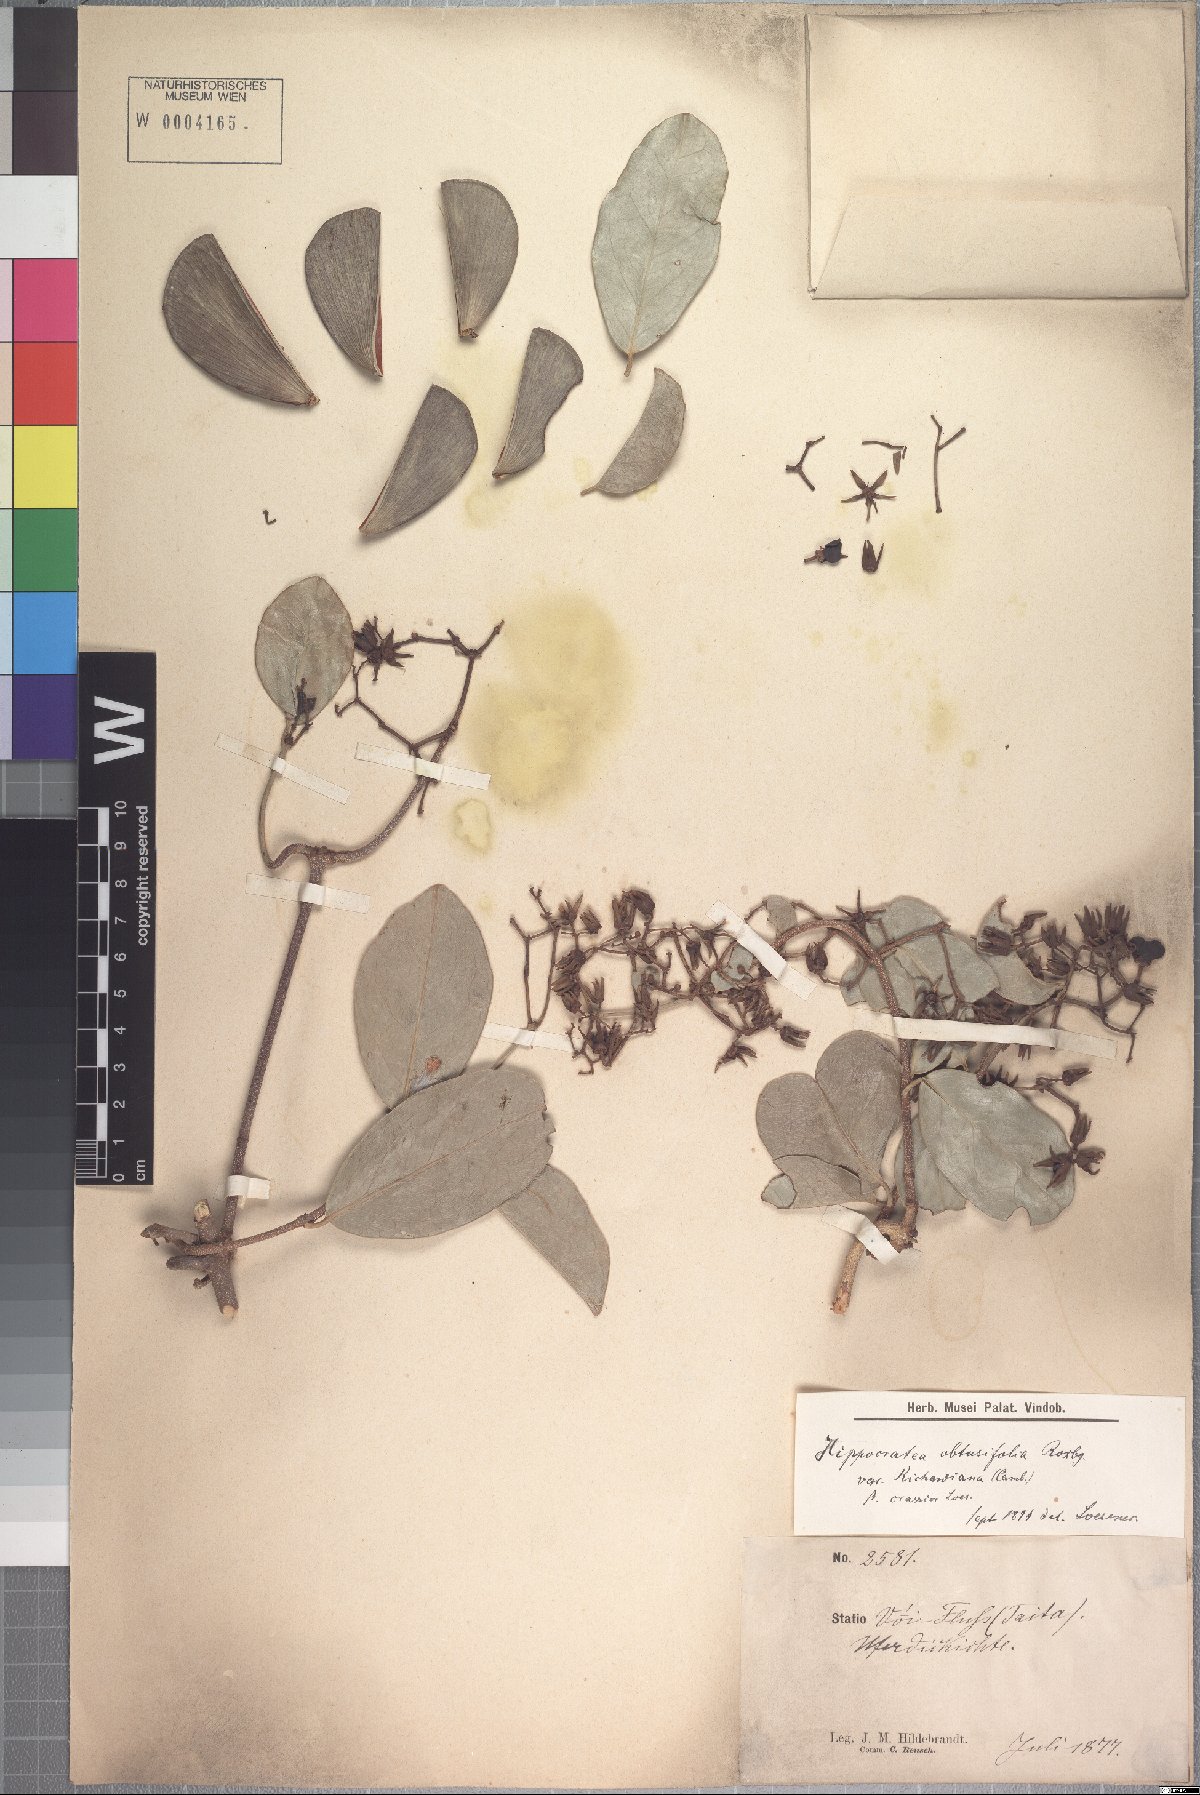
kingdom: Plantae
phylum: Tracheophyta
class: Magnoliopsida
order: Celastrales
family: Celastraceae
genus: Loeseneriella
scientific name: Loeseneriella africana
